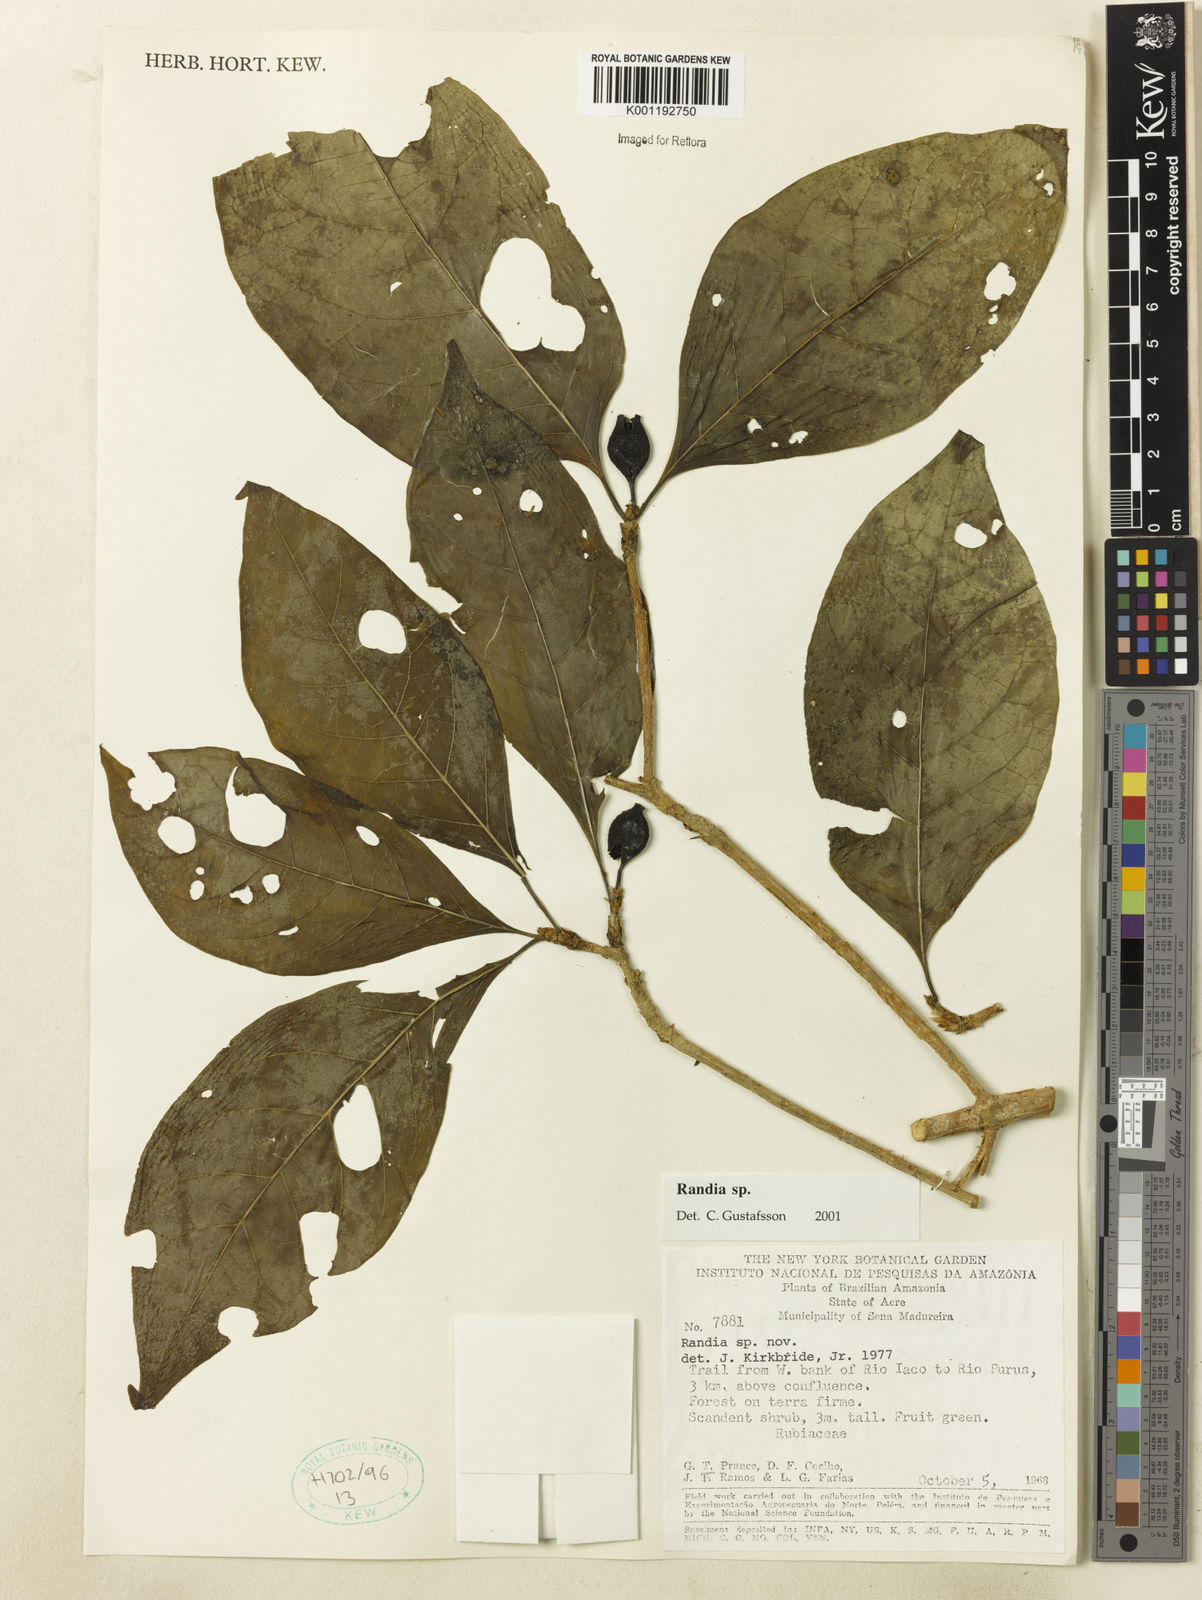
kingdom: Plantae
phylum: Tracheophyta
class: Magnoliopsida
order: Gentianales
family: Rubiaceae
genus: Randia
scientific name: Randia
